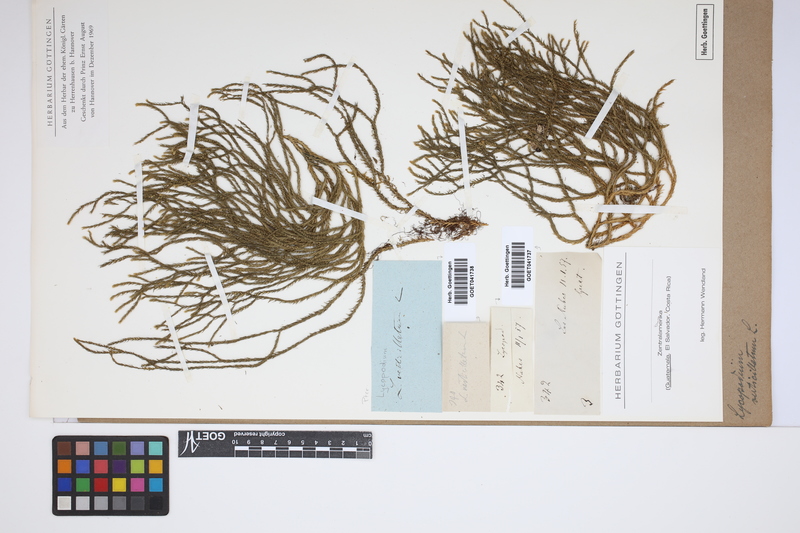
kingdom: Plantae
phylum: Tracheophyta
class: Lycopodiopsida
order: Lycopodiales
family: Lycopodiaceae
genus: Phlegmariurus
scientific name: Phlegmariurus verticillatus
